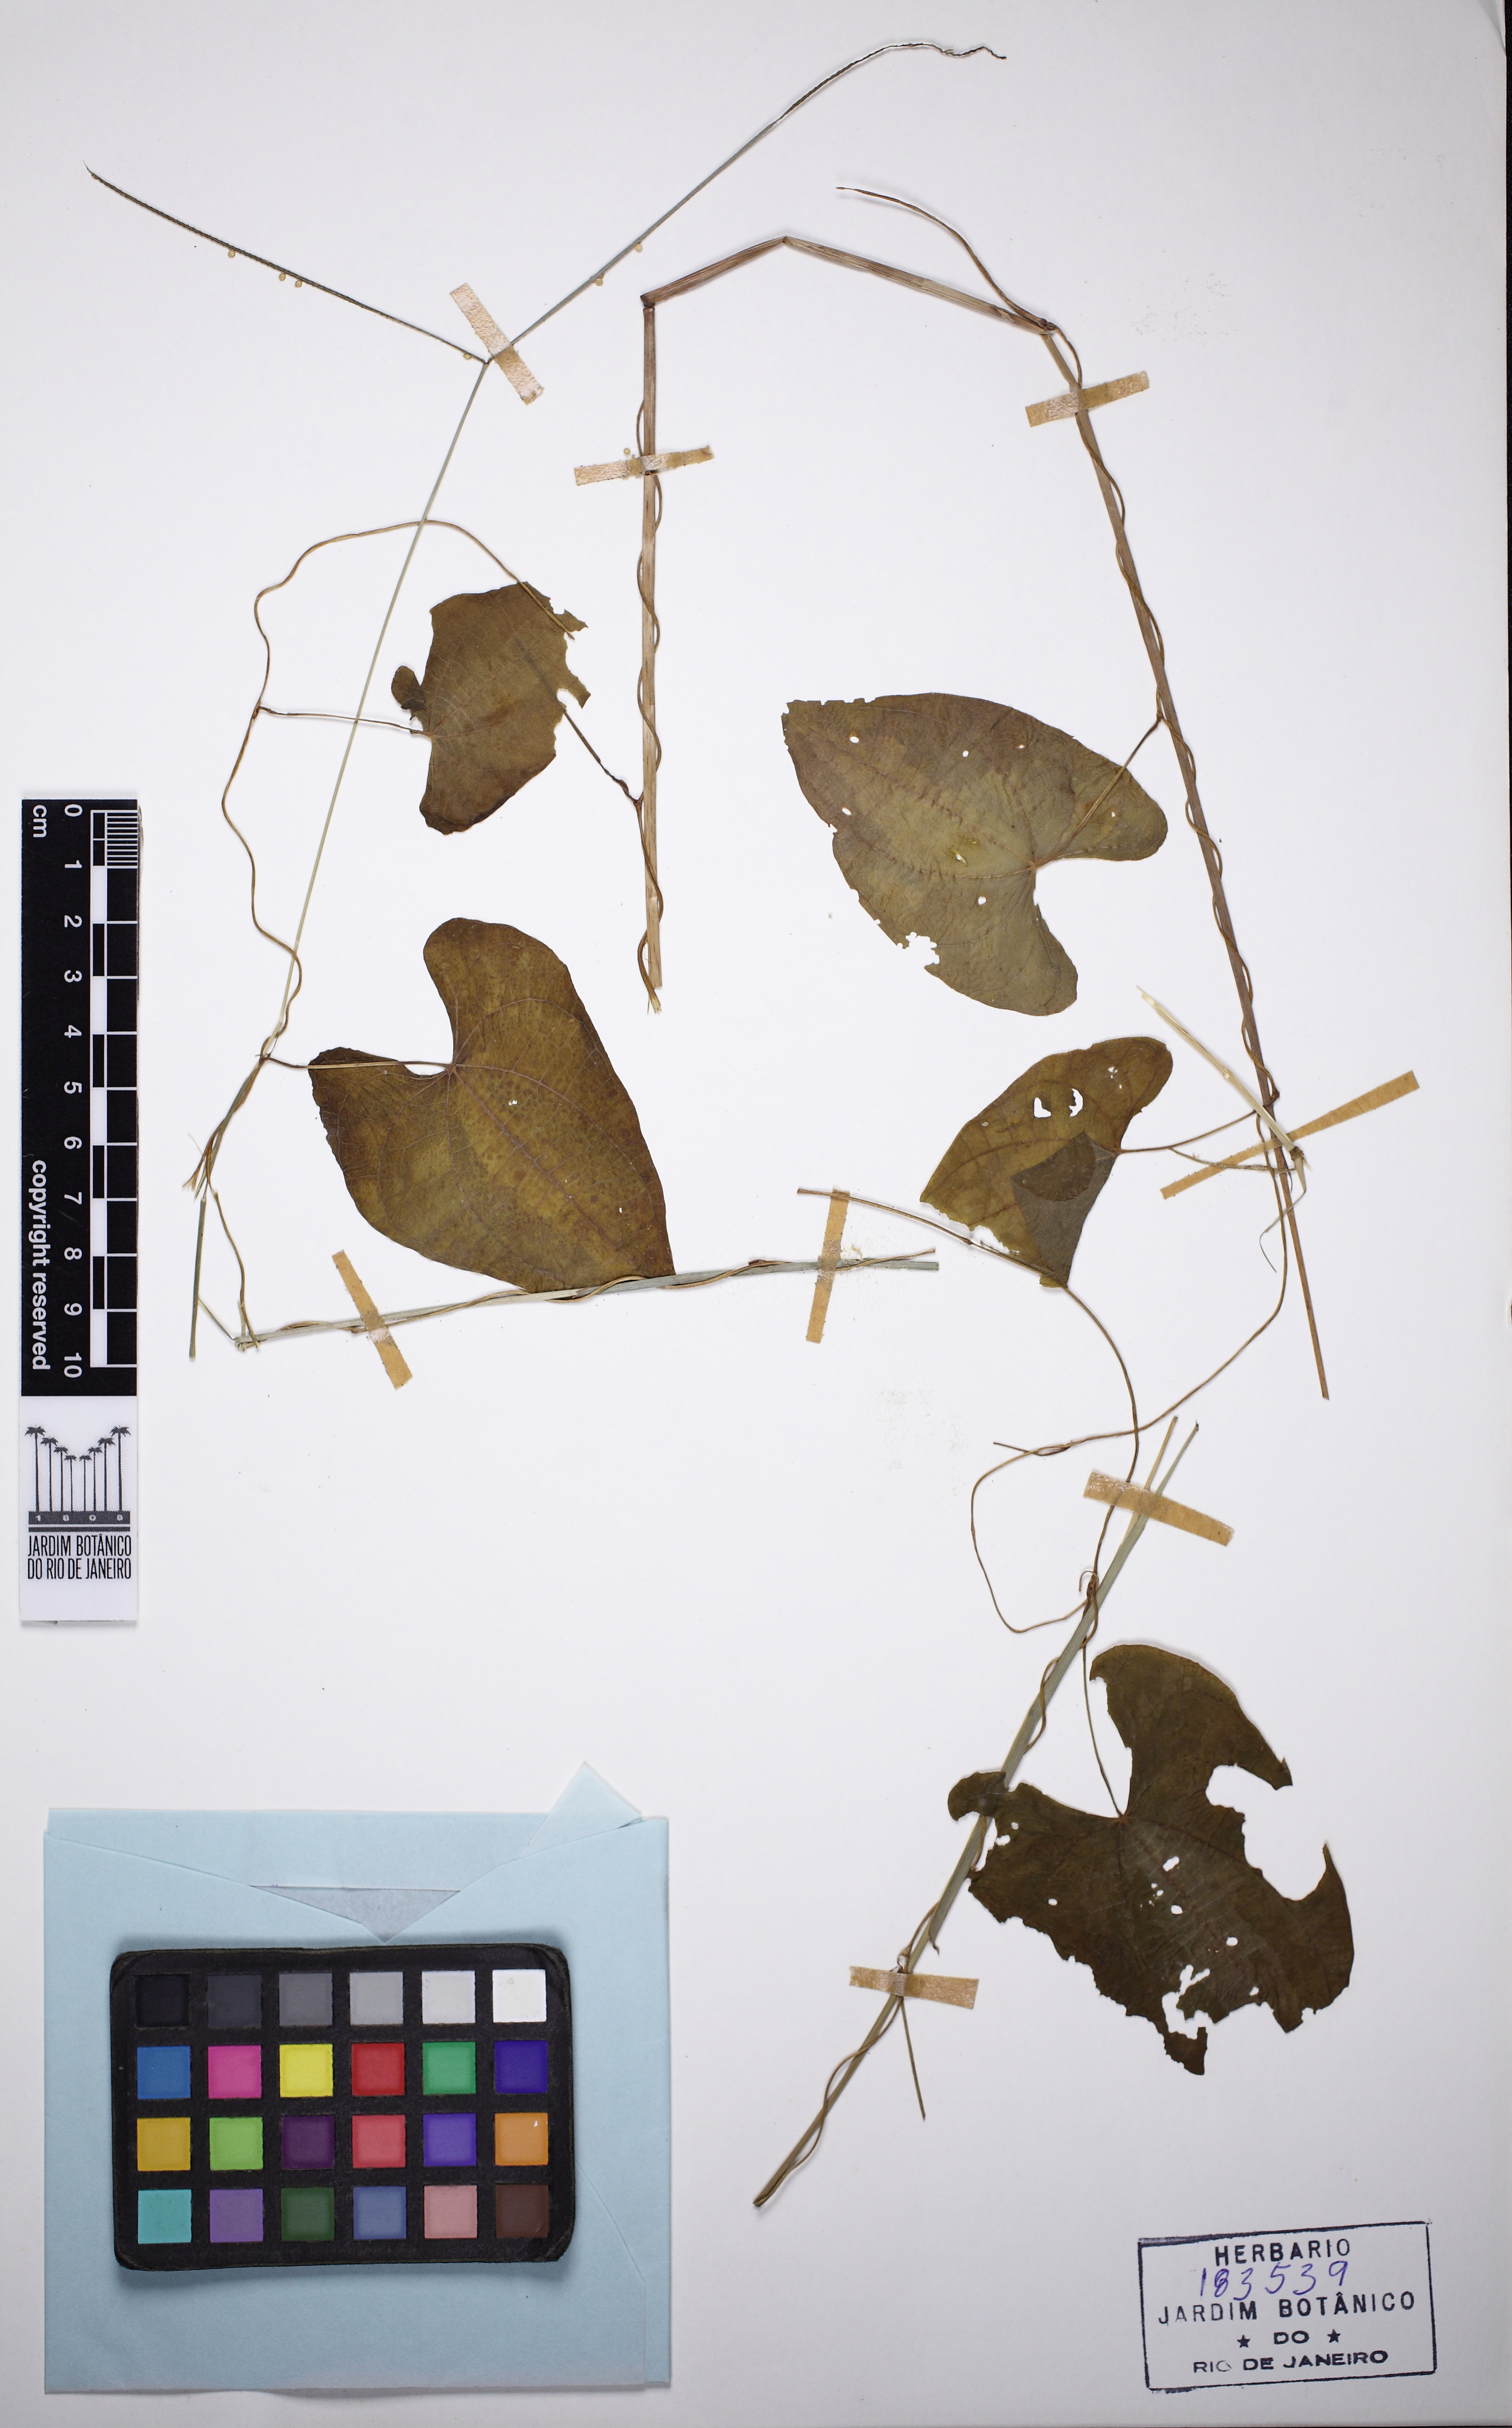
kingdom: Plantae
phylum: Tracheophyta
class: Liliopsida
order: Dioscoreales
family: Dioscoreaceae
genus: Dioscorea
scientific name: Dioscorea dodecaneura
